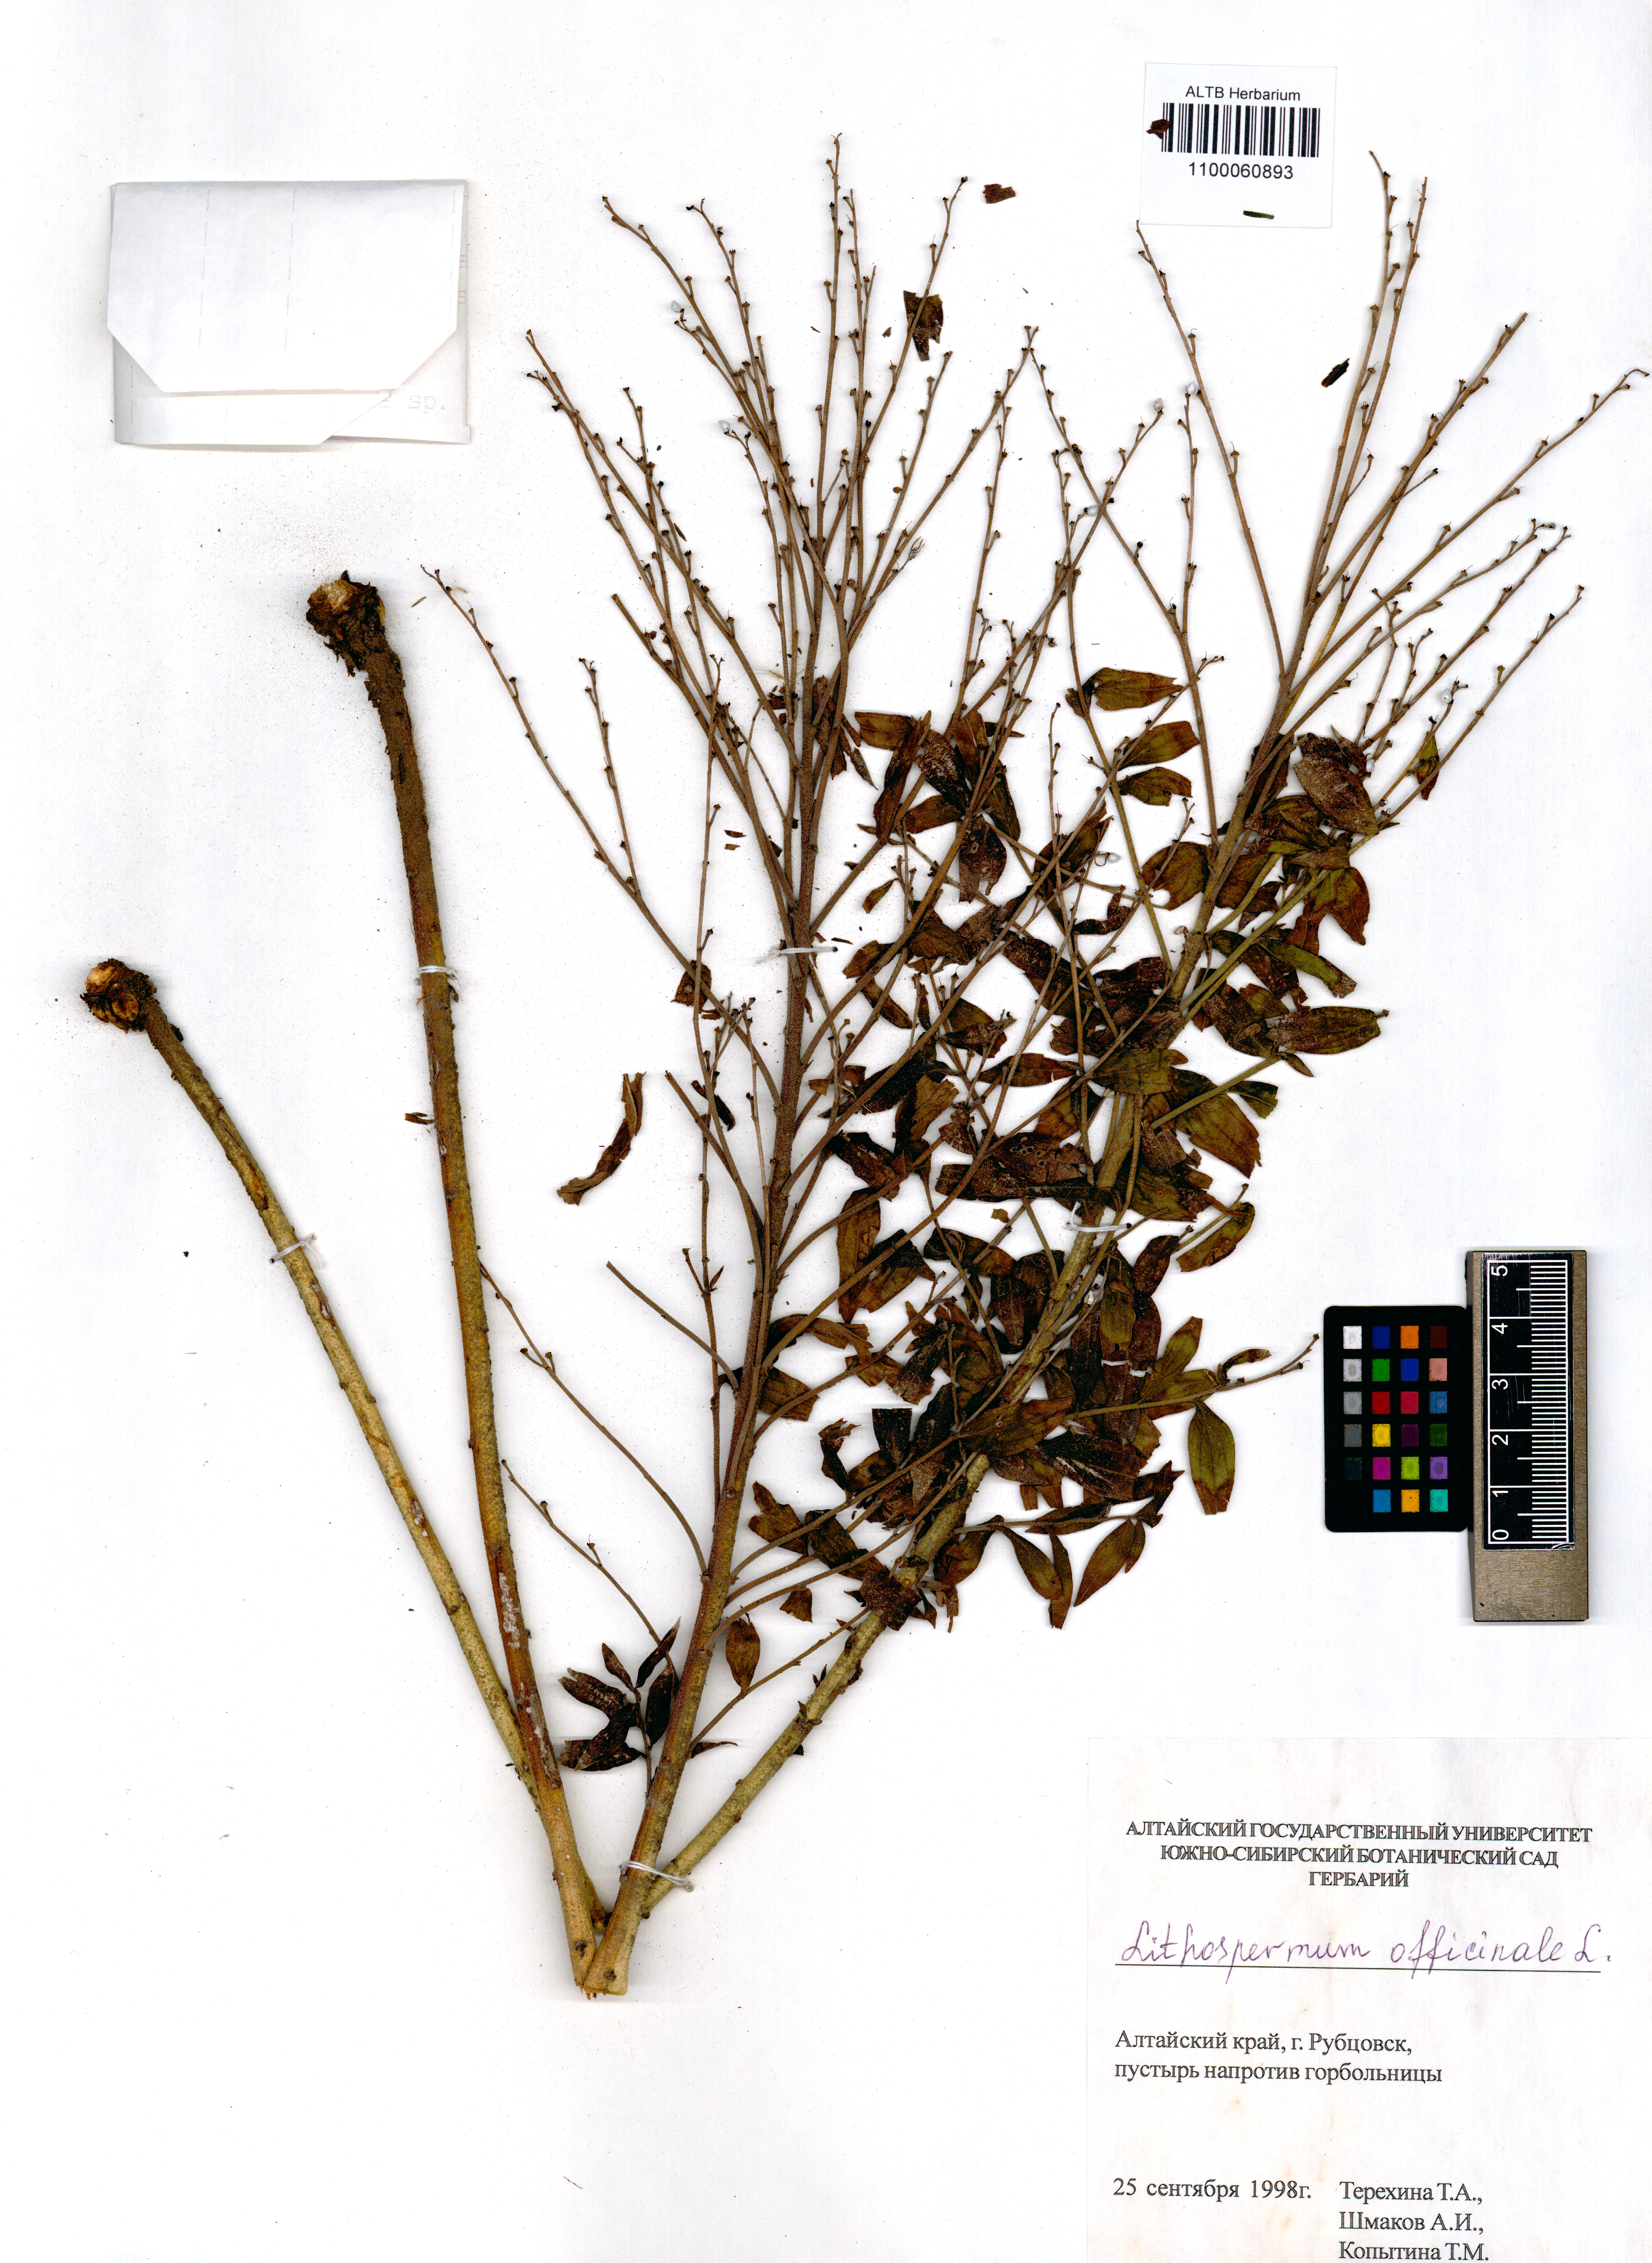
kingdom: Plantae
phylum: Tracheophyta
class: Magnoliopsida
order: Boraginales
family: Boraginaceae
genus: Lithospermum
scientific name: Lithospermum officinale
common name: Common gromwell
